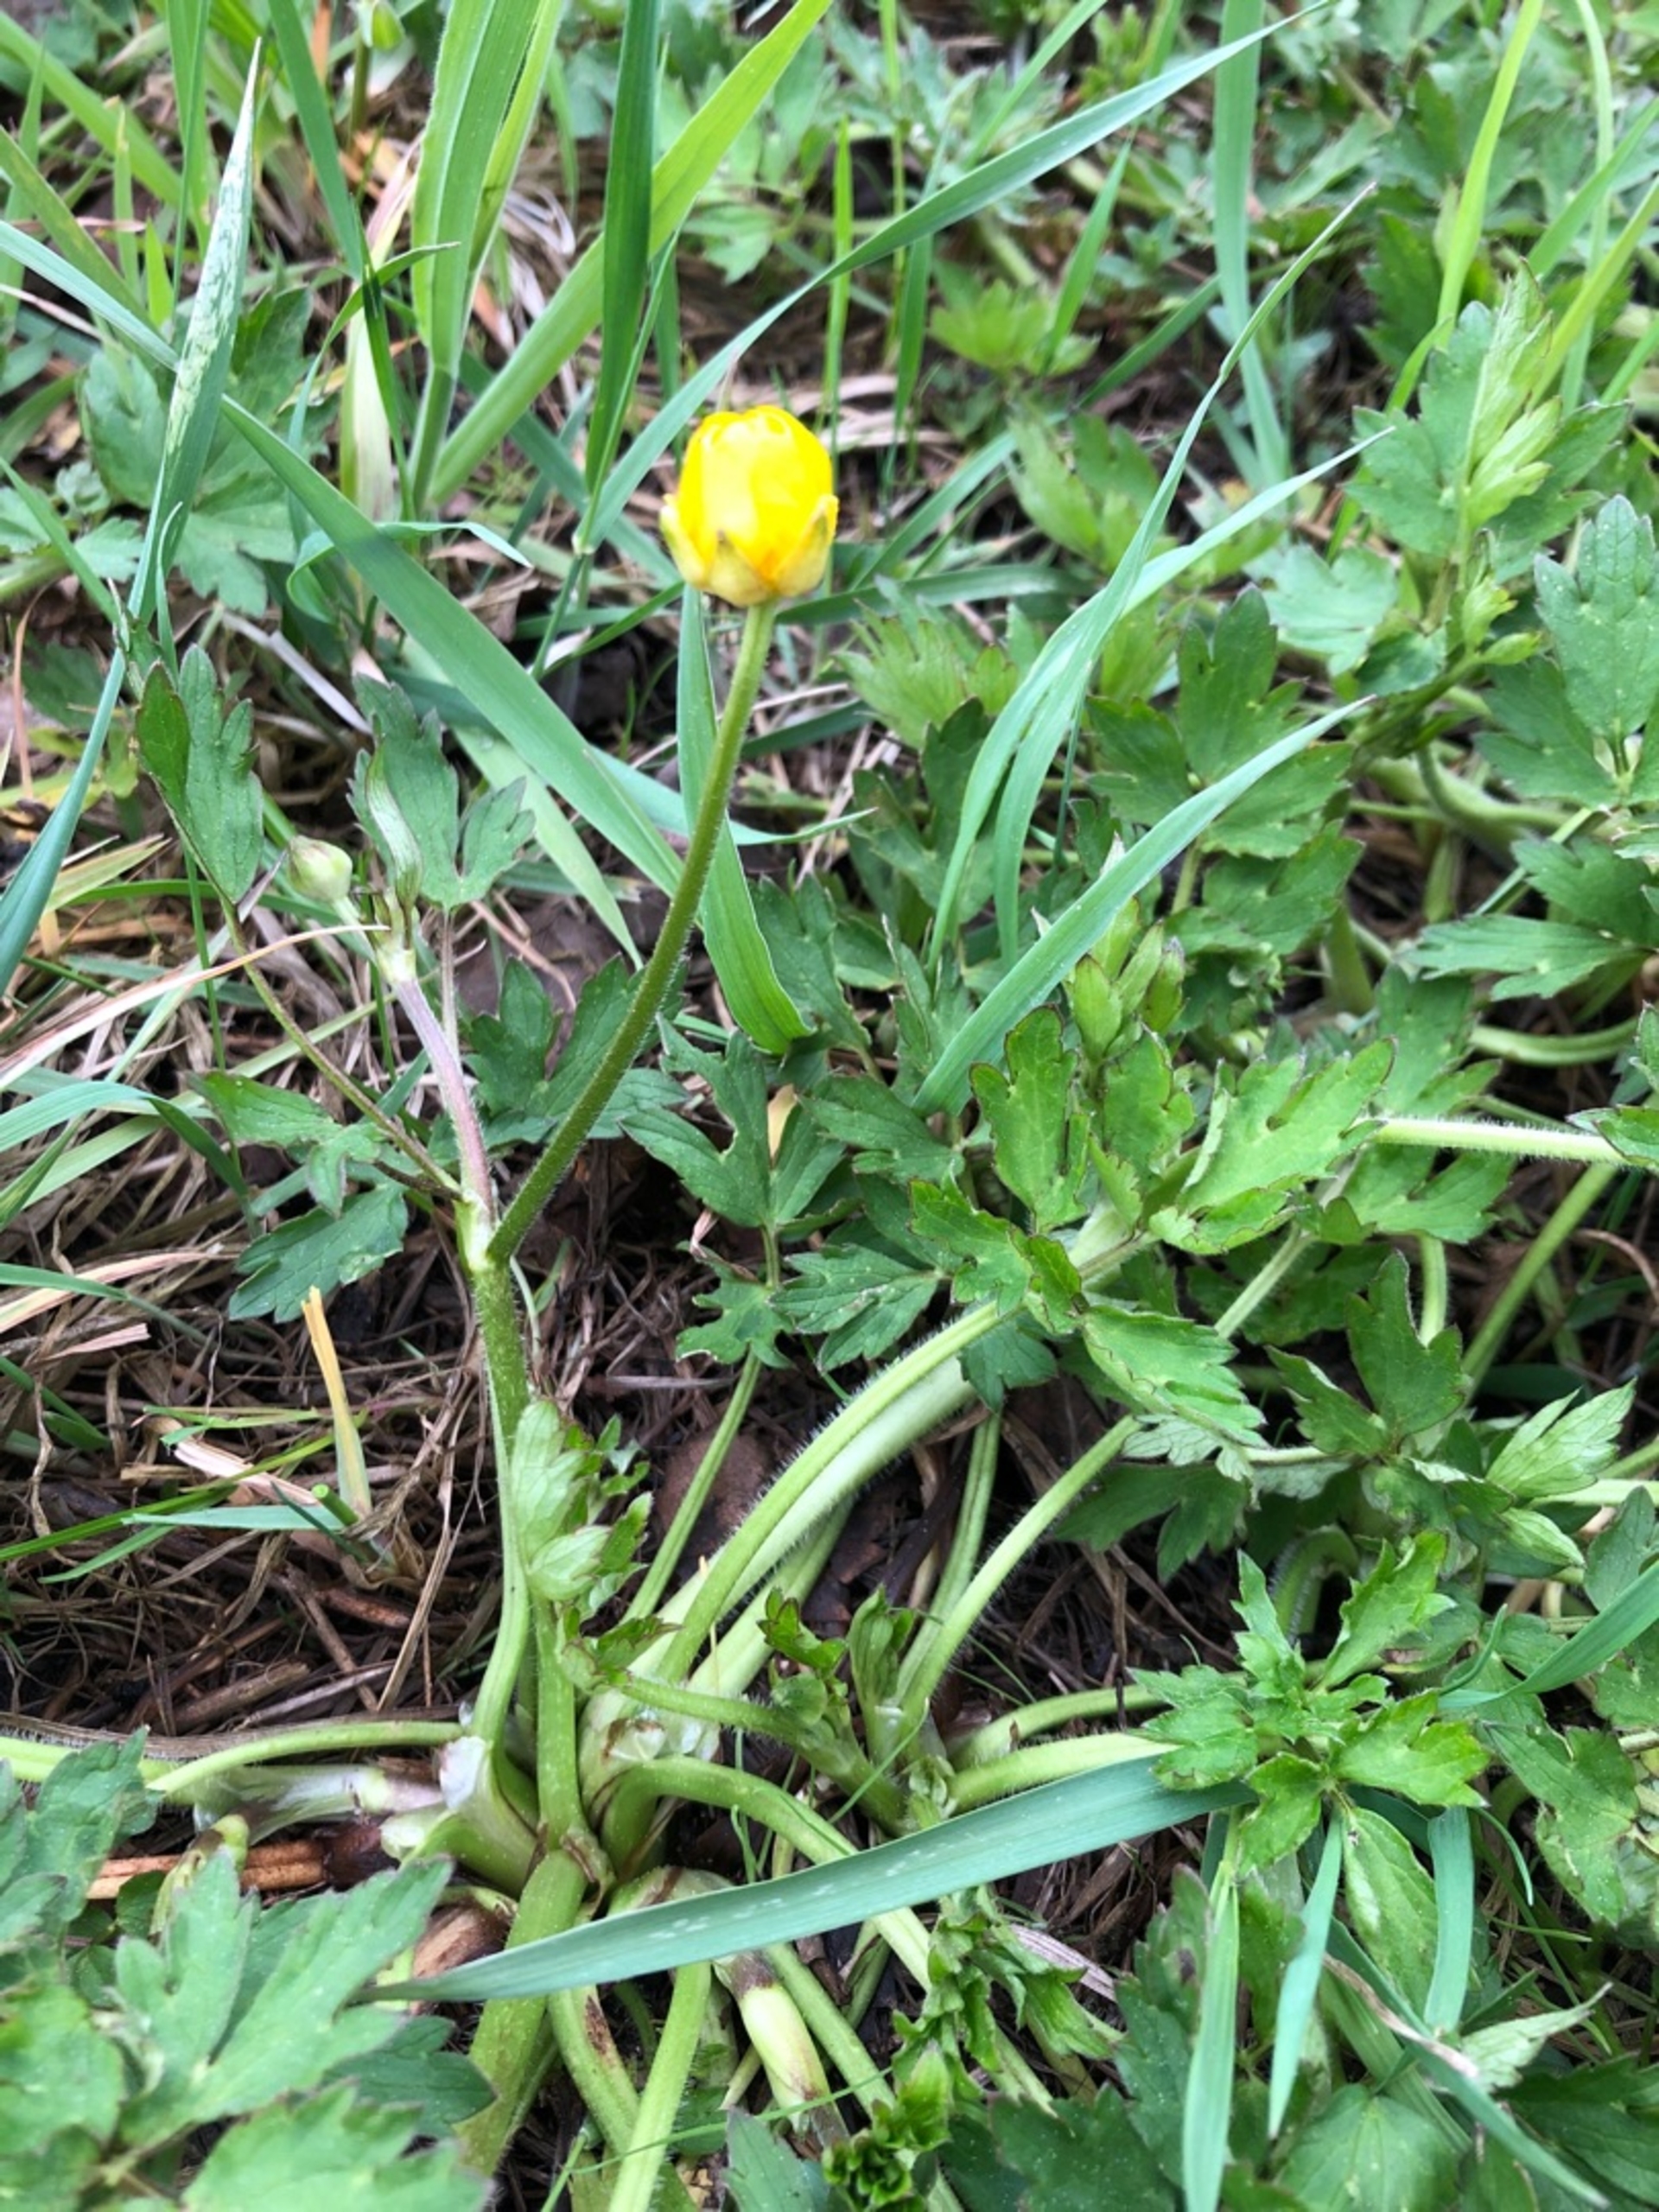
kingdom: Plantae
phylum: Tracheophyta
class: Magnoliopsida
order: Ranunculales
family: Ranunculaceae
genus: Ranunculus
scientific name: Ranunculus repens
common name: Lav ranunkel
